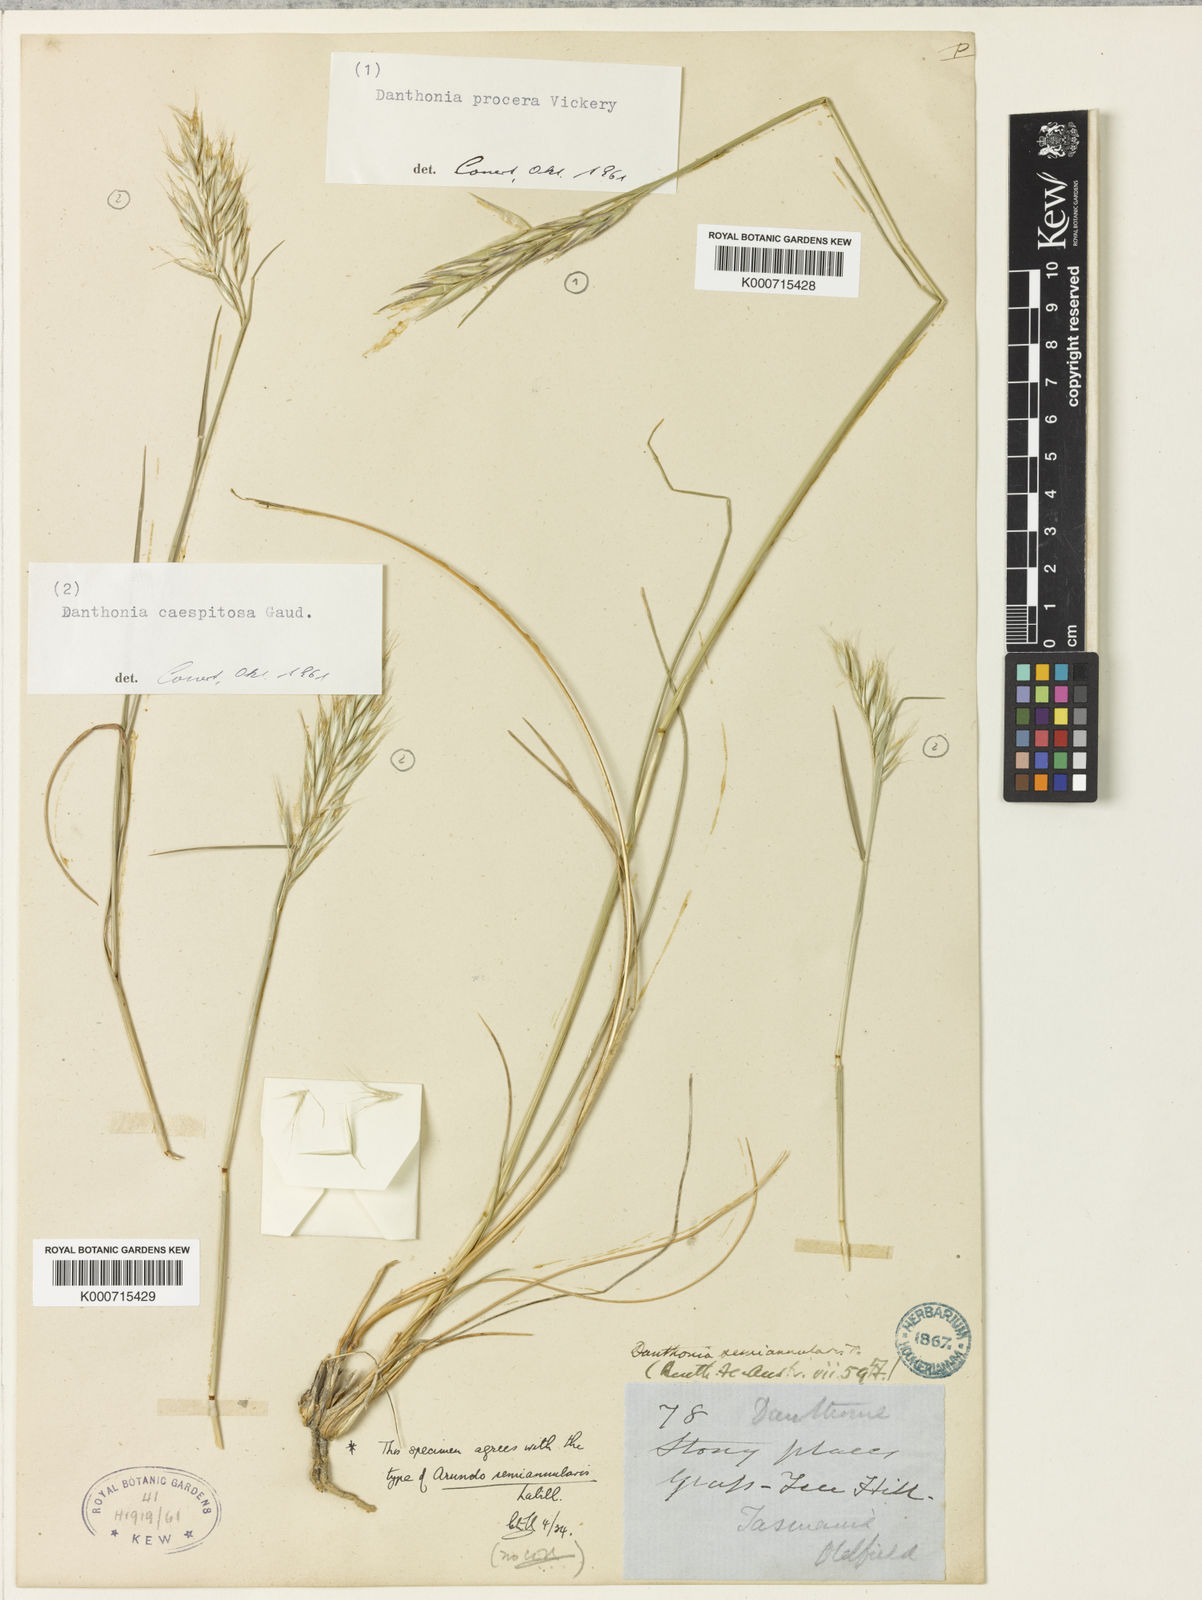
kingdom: Plantae
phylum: Tracheophyta
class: Liliopsida
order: Poales
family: Poaceae
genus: Rytidosperma
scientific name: Rytidosperma semiannulare
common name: Tasmanian wallaby grass
